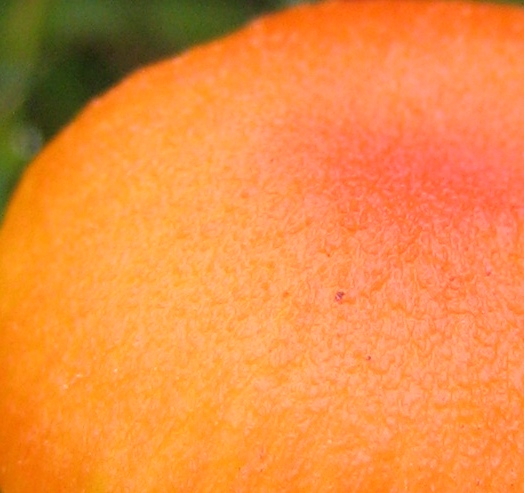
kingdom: Fungi
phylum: Basidiomycota
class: Agaricomycetes
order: Agaricales
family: Hygrophoraceae
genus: Hygrocybe
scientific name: Hygrocybe miniata
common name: mønje-vokshat
